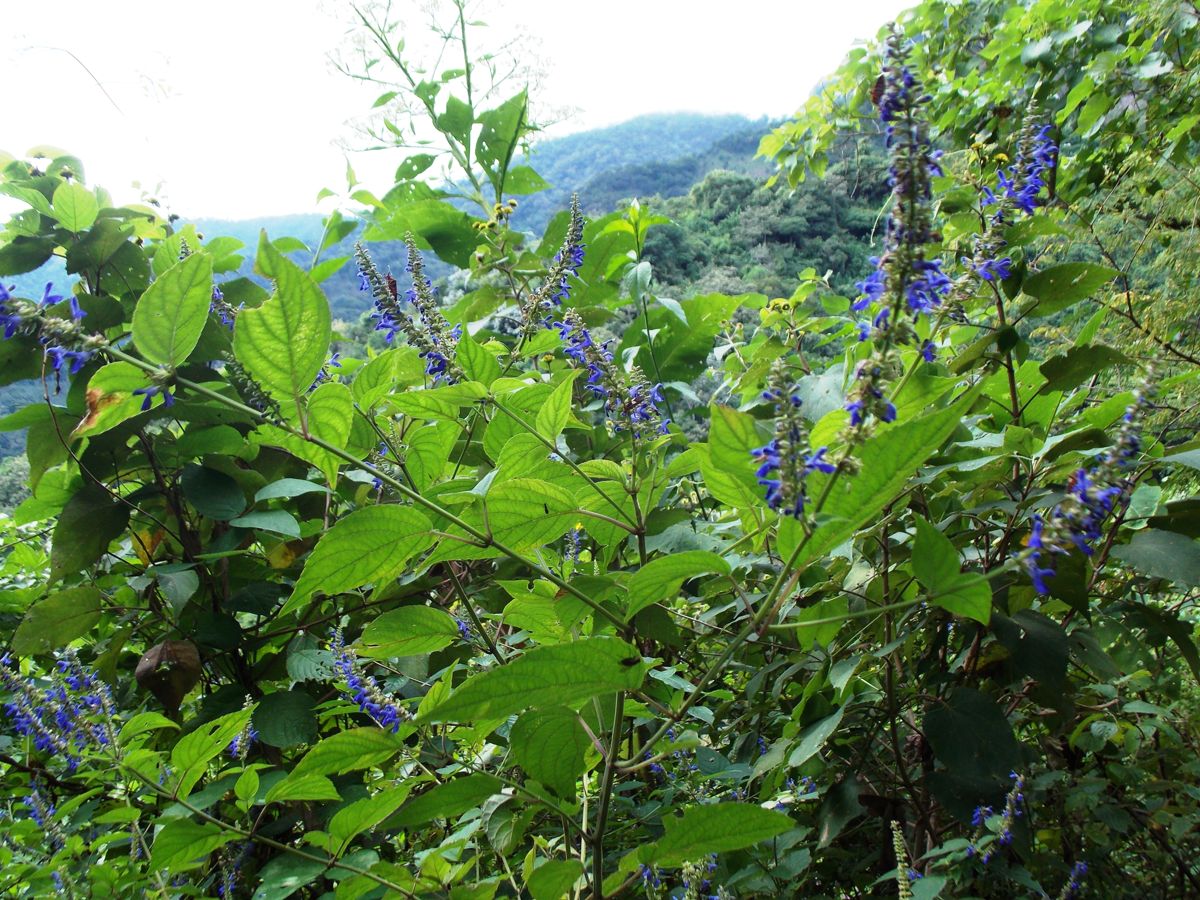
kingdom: Plantae
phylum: Tracheophyta
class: Magnoliopsida
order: Lamiales
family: Lamiaceae
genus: Salvia
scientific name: Salvia purpurea
